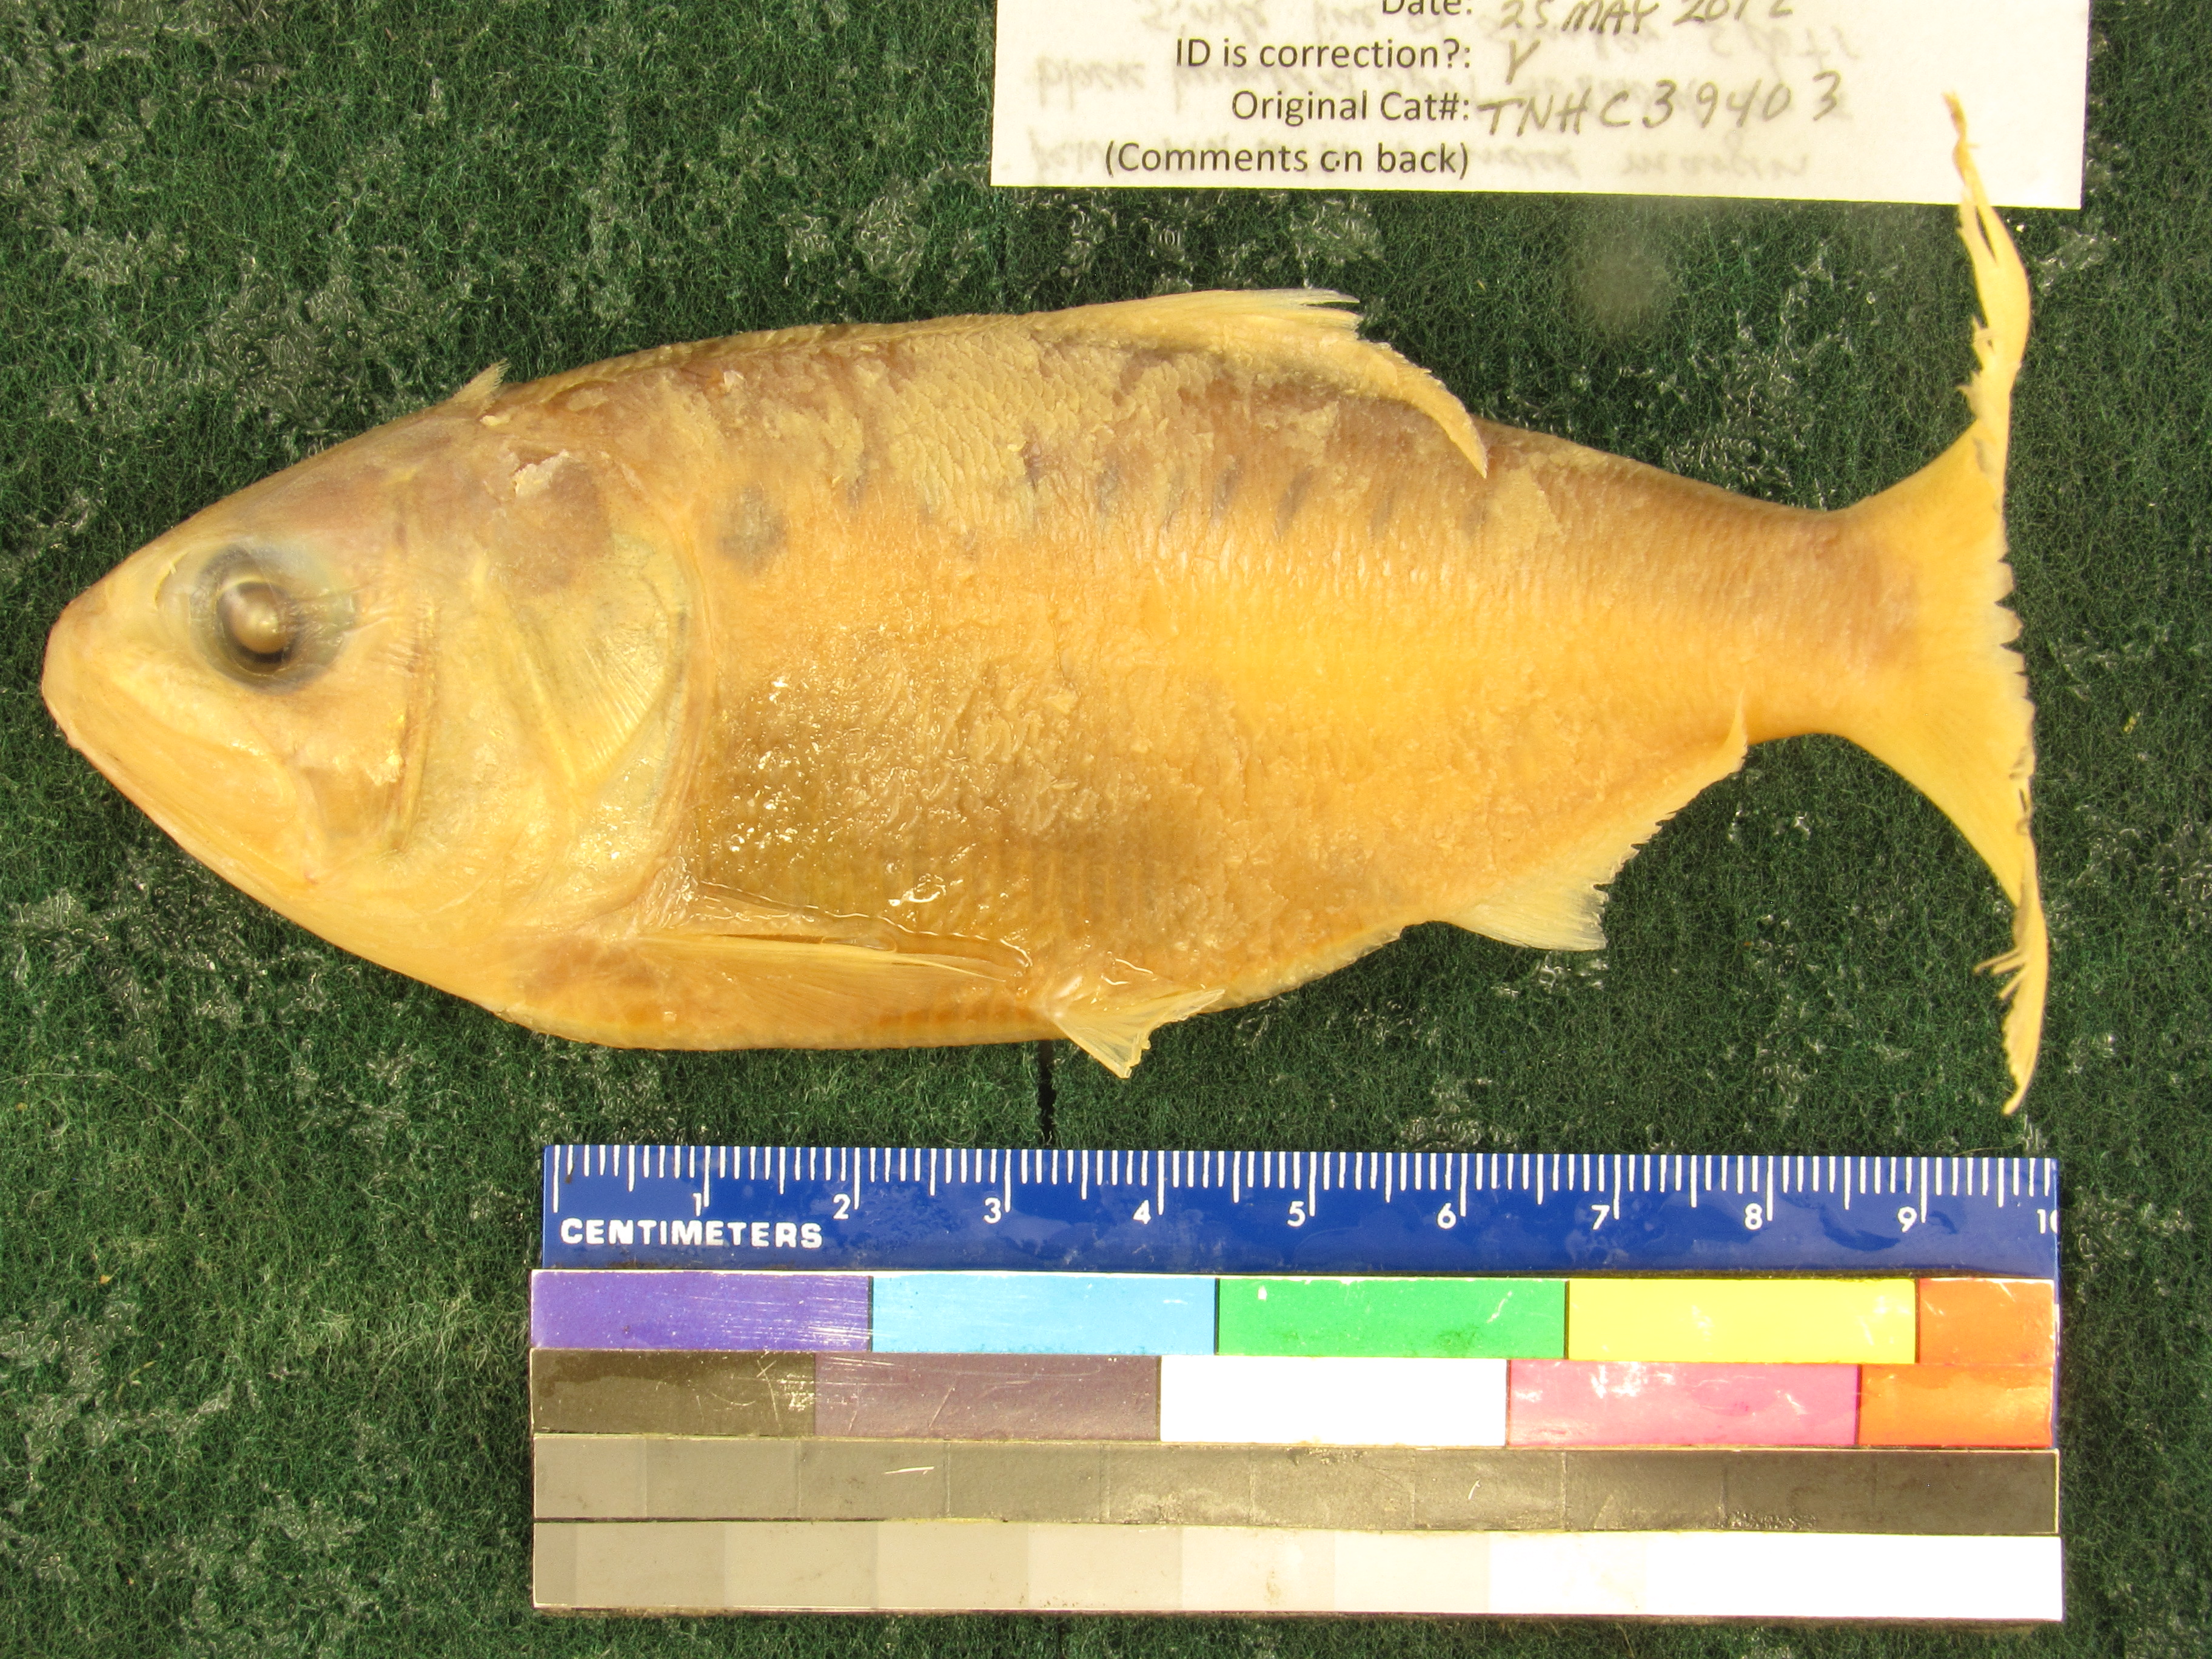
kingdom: Animalia
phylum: Chordata
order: Clupeiformes
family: Clupeidae
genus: Brevoortia
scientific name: Brevoortia patronus
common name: Gulf menhaden
